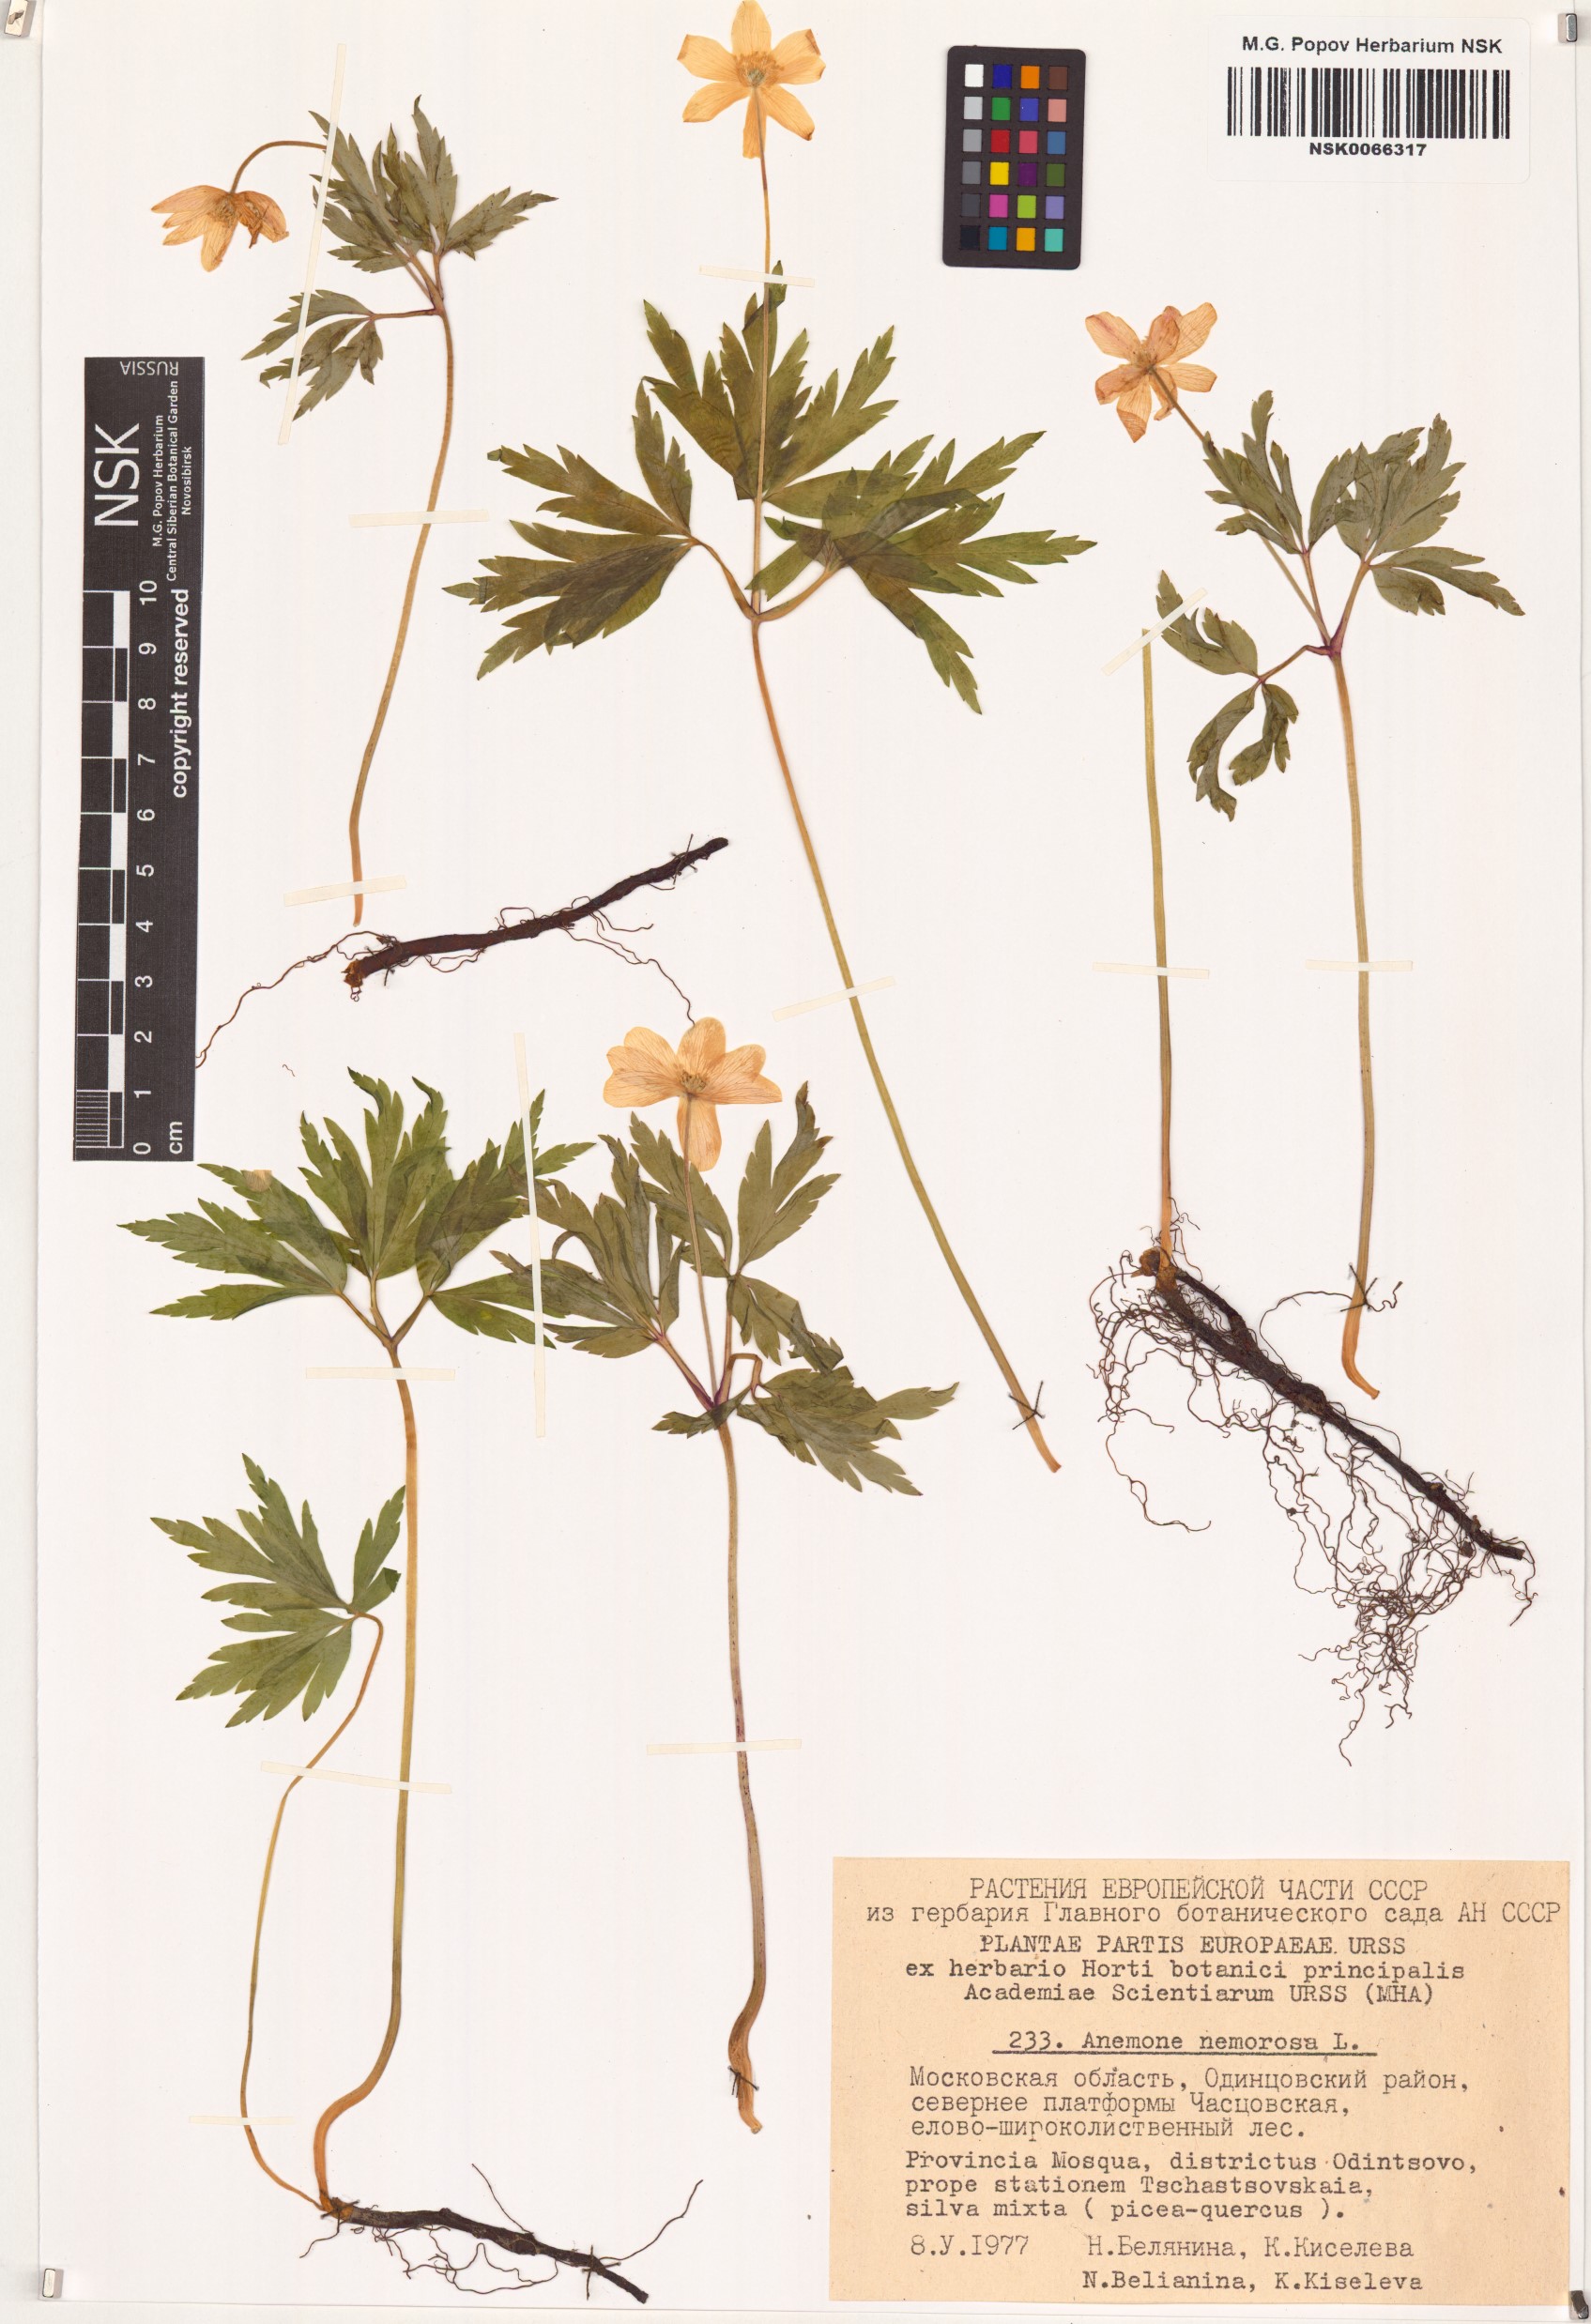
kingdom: Plantae
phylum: Tracheophyta
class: Magnoliopsida
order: Ranunculales
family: Ranunculaceae
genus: Anemone
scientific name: Anemone nemorosa
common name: Wood anemone
